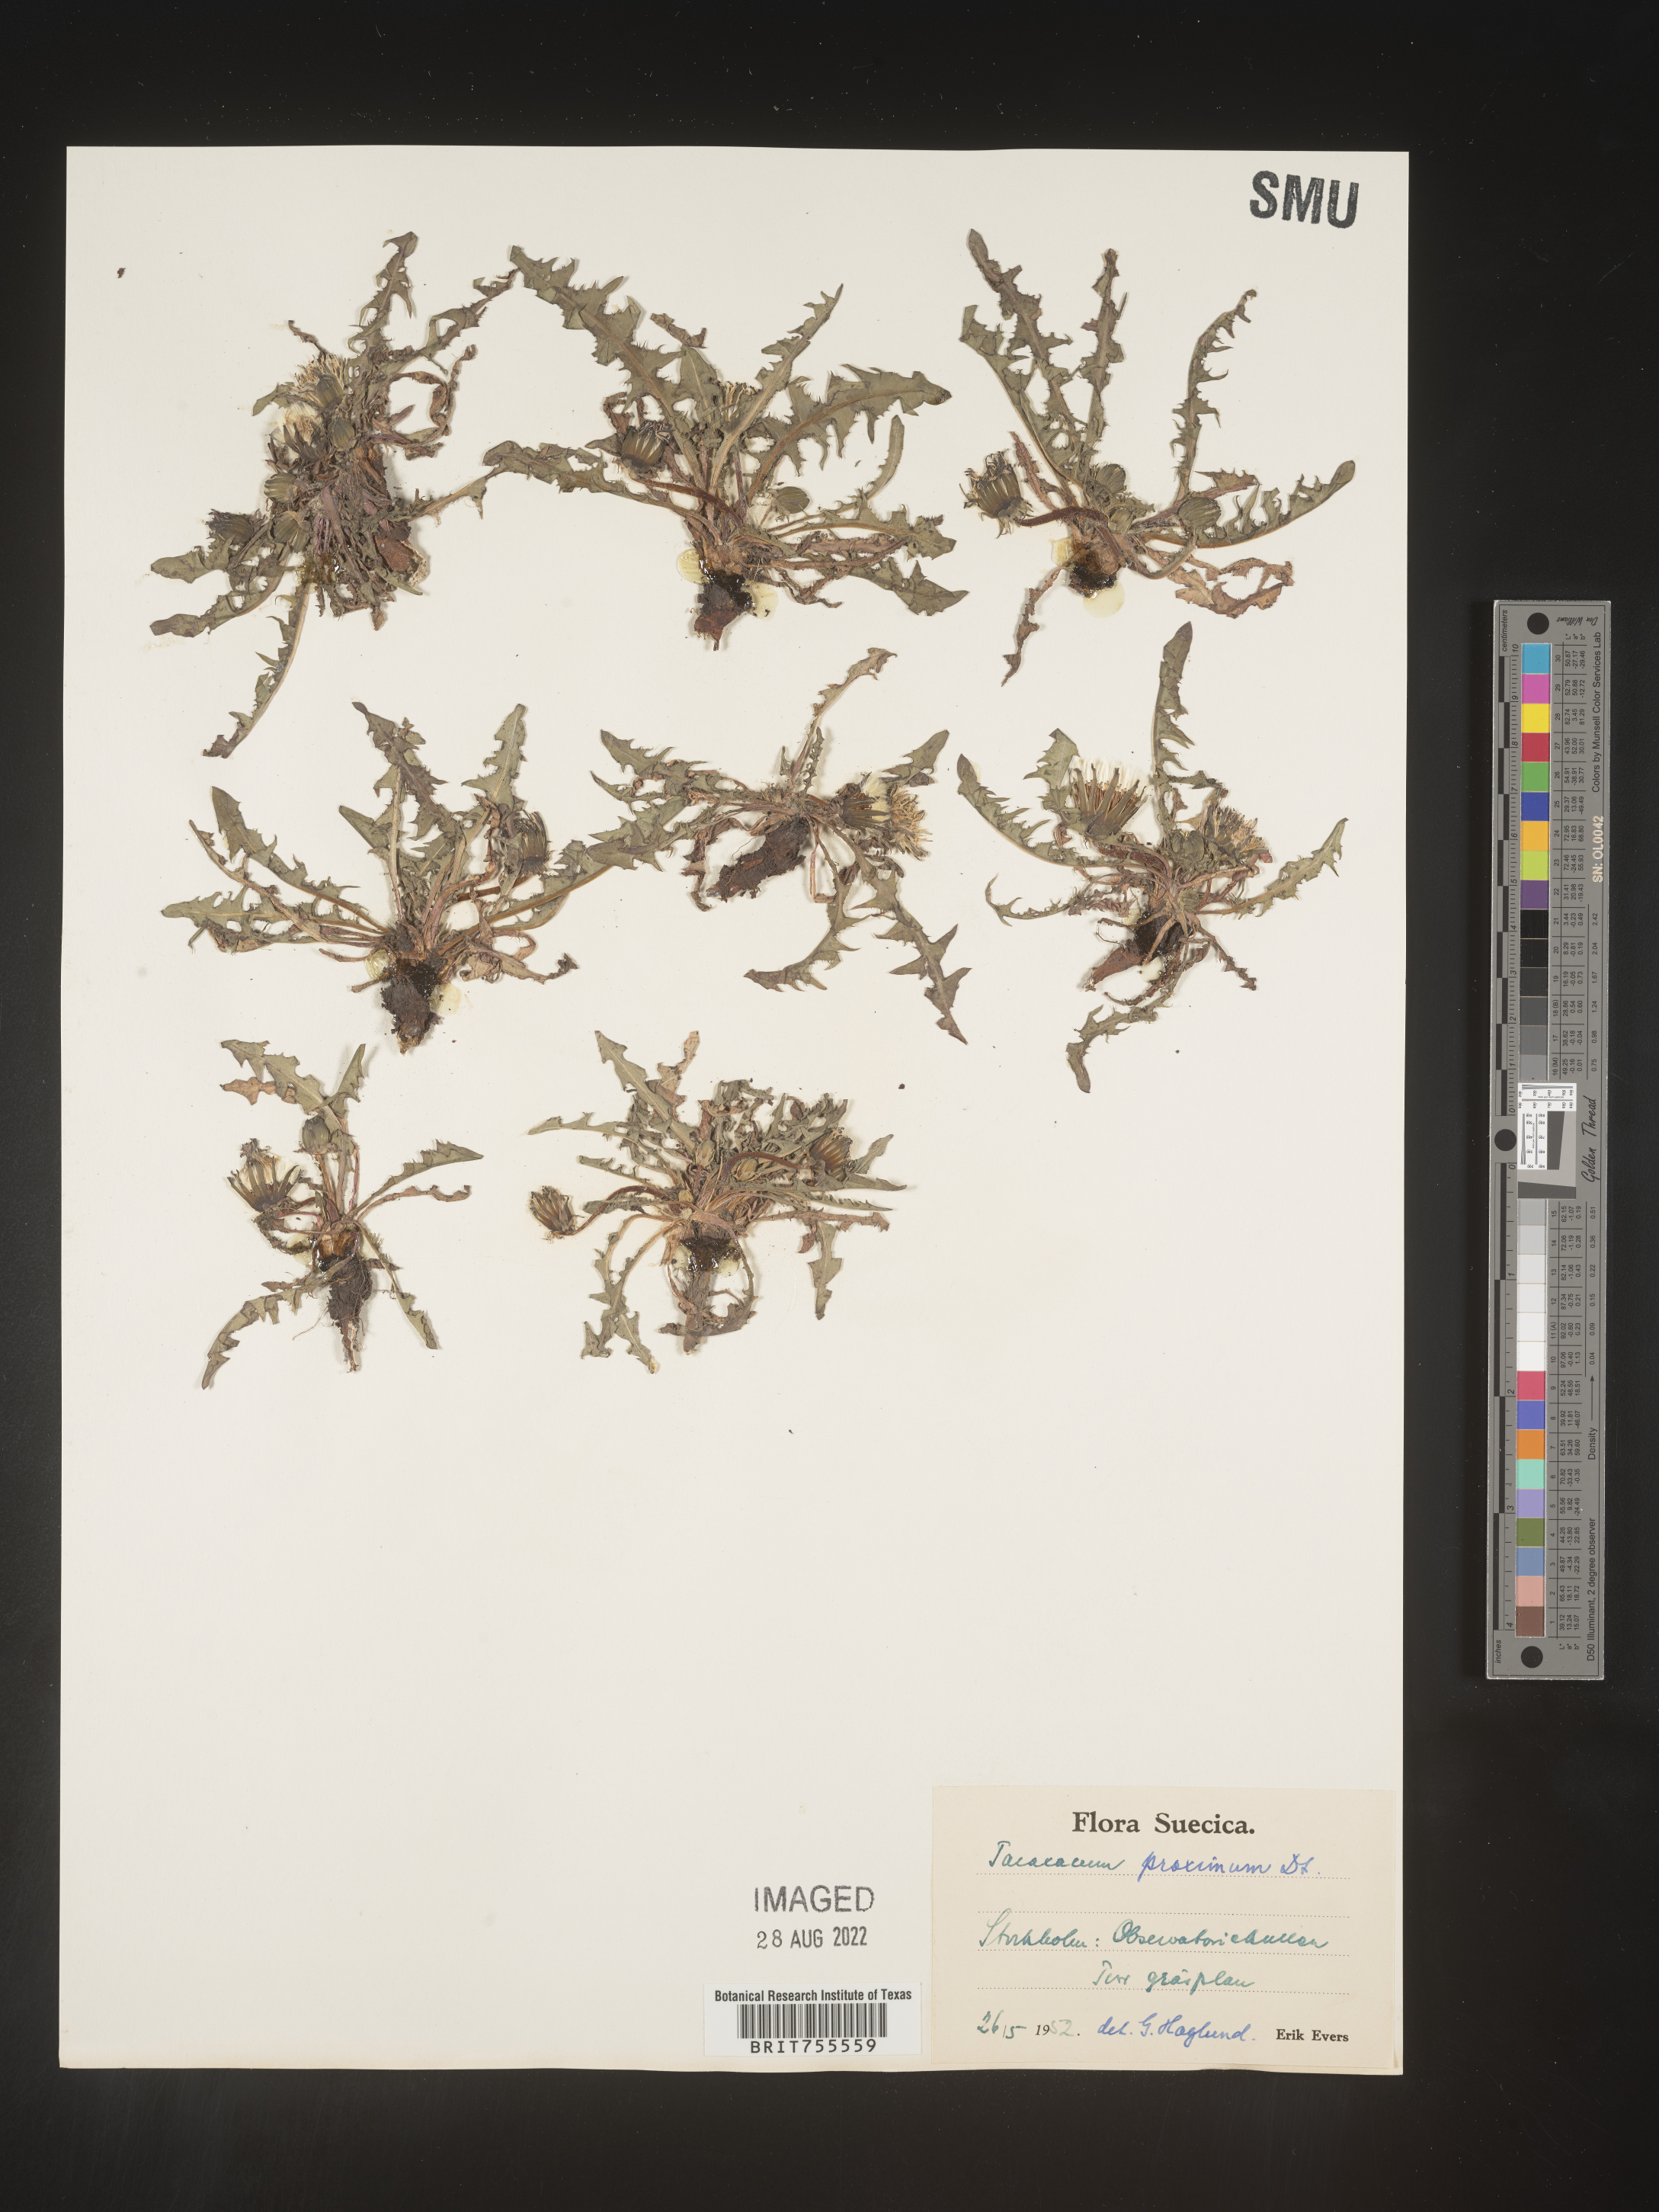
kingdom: Plantae
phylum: Tracheophyta
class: Magnoliopsida
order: Asterales
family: Asteraceae
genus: Taraxacum
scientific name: Taraxacum
